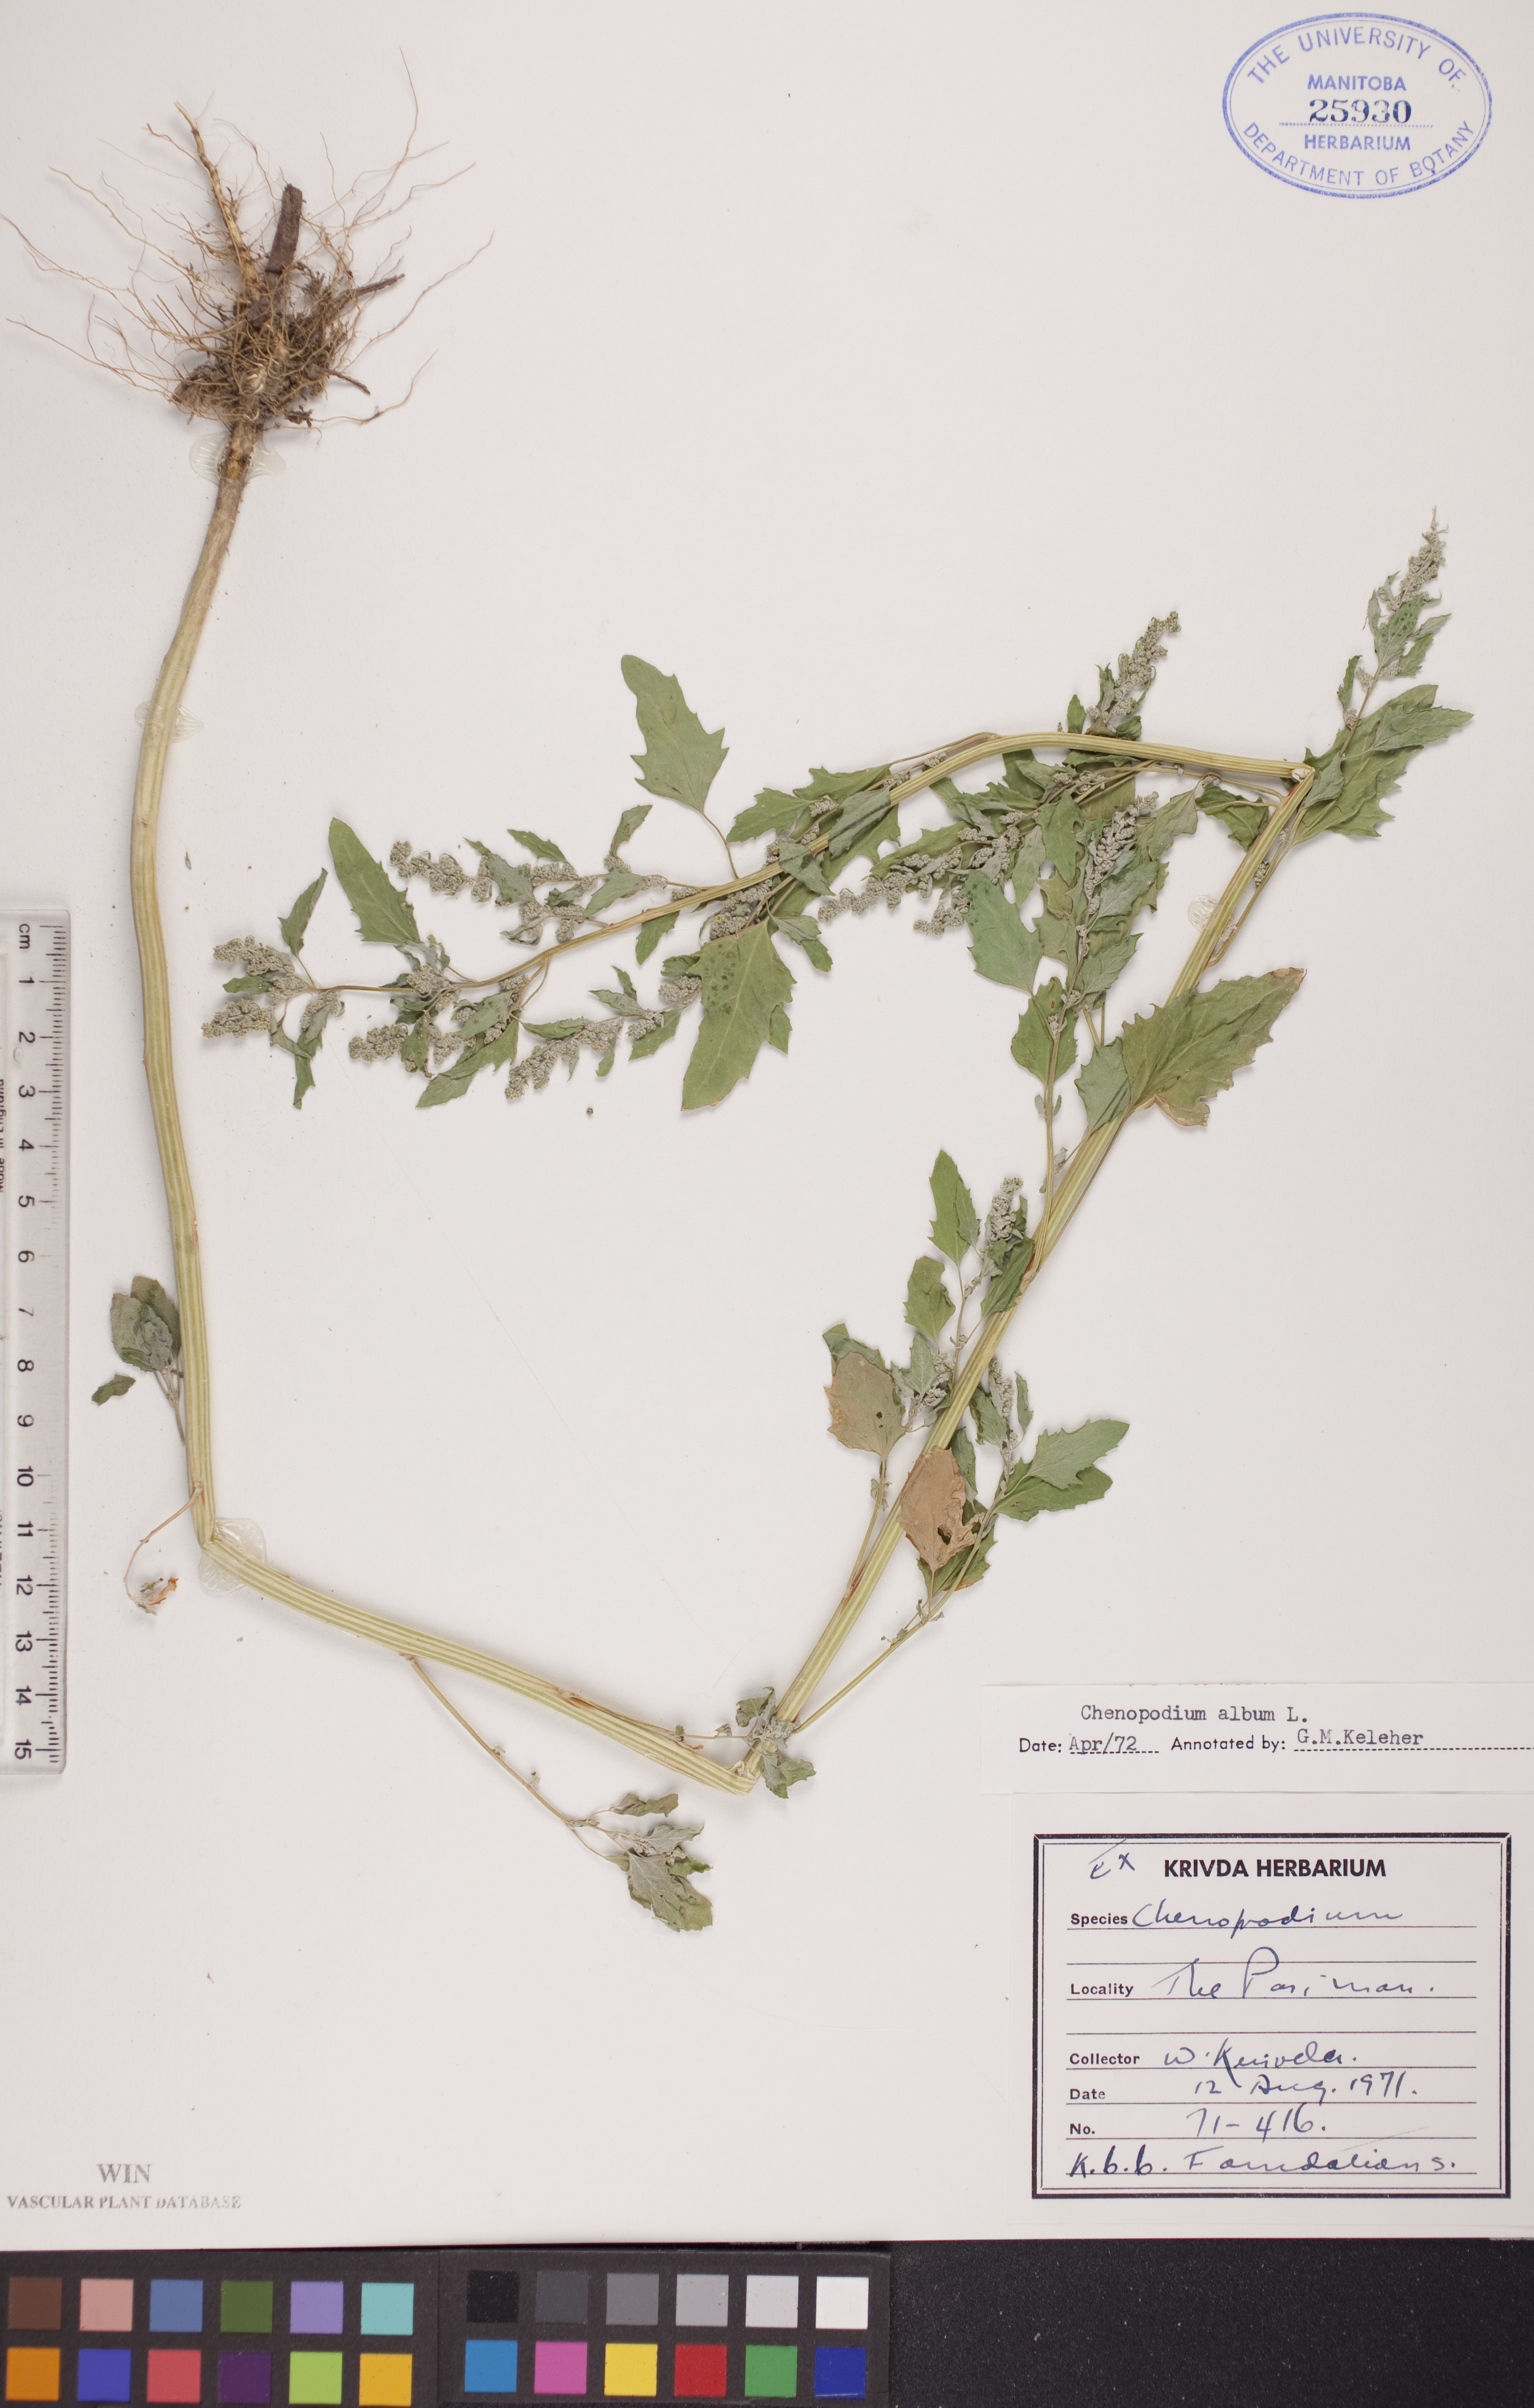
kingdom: Plantae
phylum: Tracheophyta
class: Magnoliopsida
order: Caryophyllales
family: Amaranthaceae
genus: Chenopodium
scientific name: Chenopodium album
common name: Fat-hen
